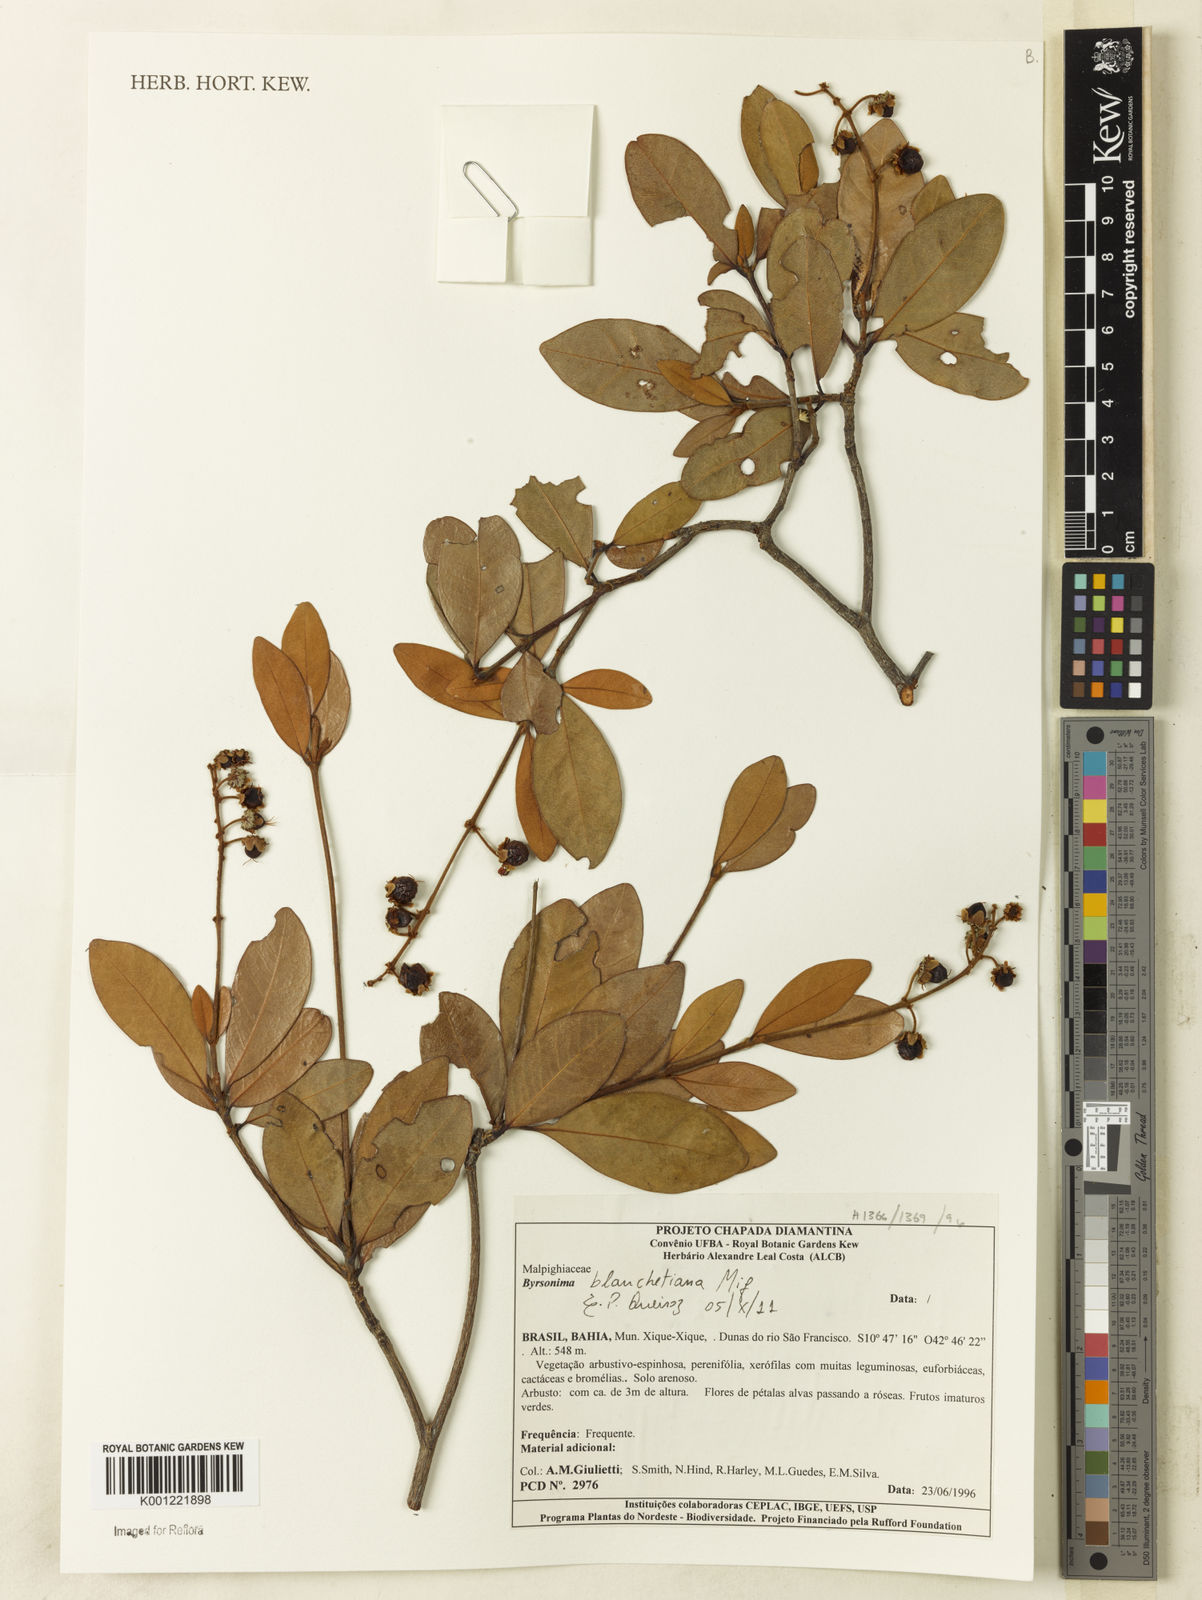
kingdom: Plantae
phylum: Tracheophyta
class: Magnoliopsida
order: Malpighiales
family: Malpighiaceae
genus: Byrsonima
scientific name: Byrsonima bicorniculata
